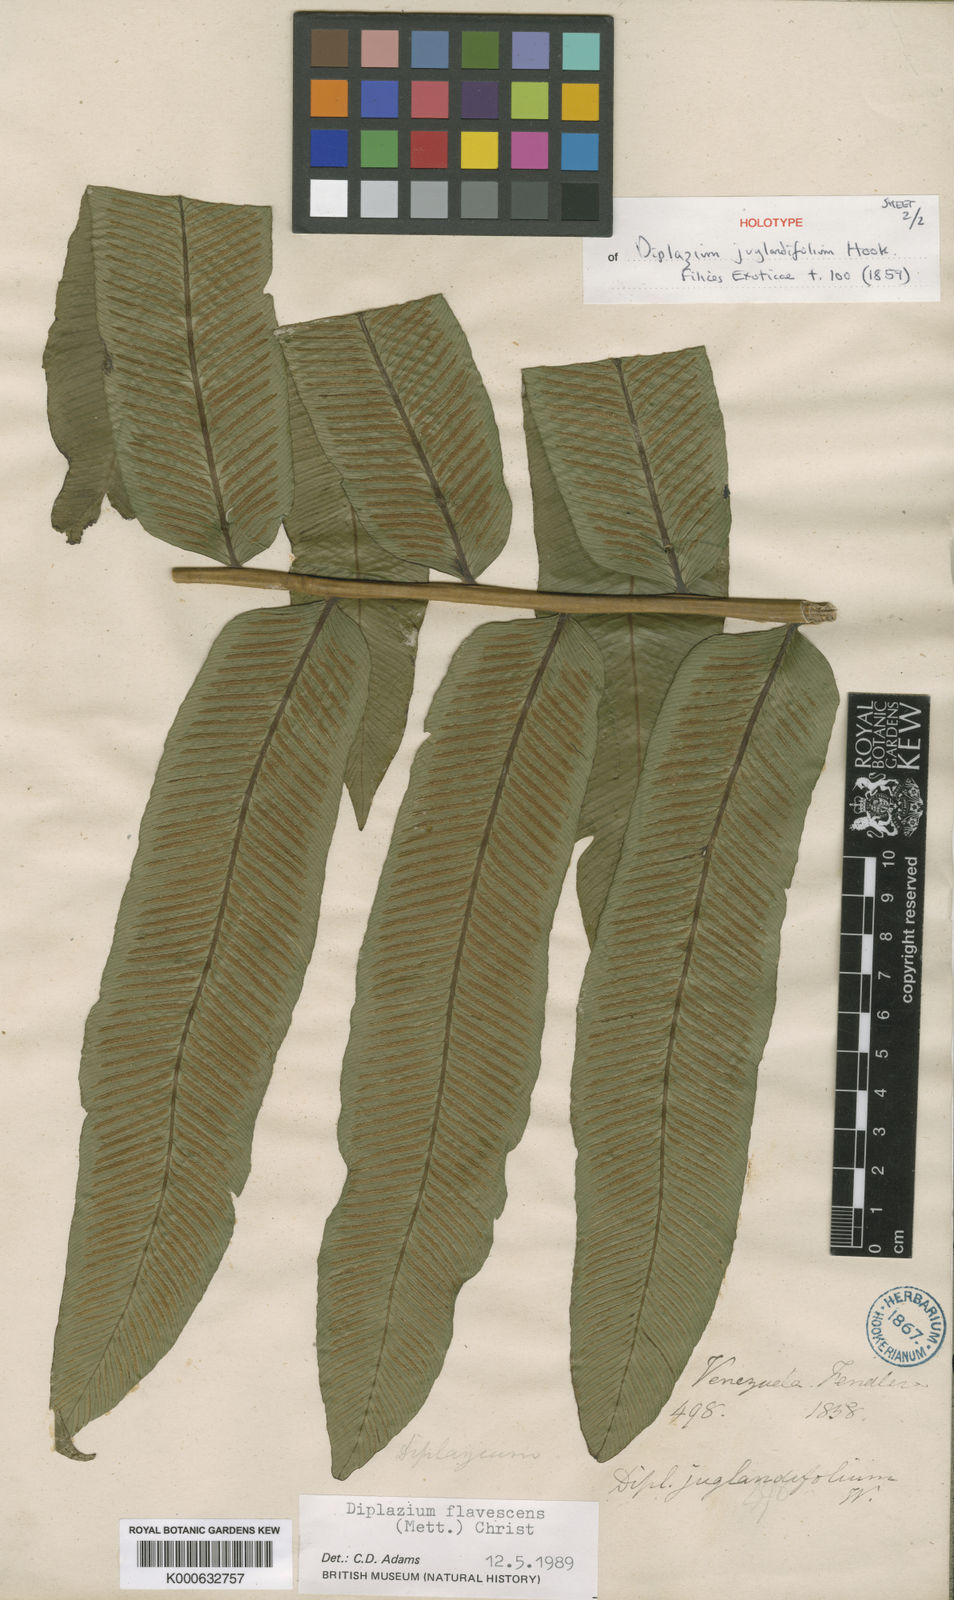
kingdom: Plantae
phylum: Tracheophyta
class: Polypodiopsida
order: Polypodiales
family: Athyriaceae
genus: Diplazium
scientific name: Diplazium alienum
